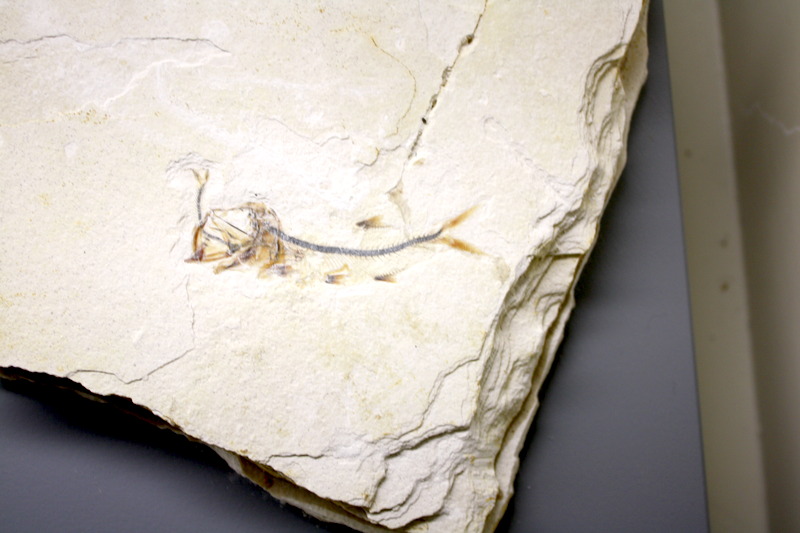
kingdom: Animalia
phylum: Chordata
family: Ascalaboidae
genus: Ebertichthys
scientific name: Ebertichthys ettlingensis
